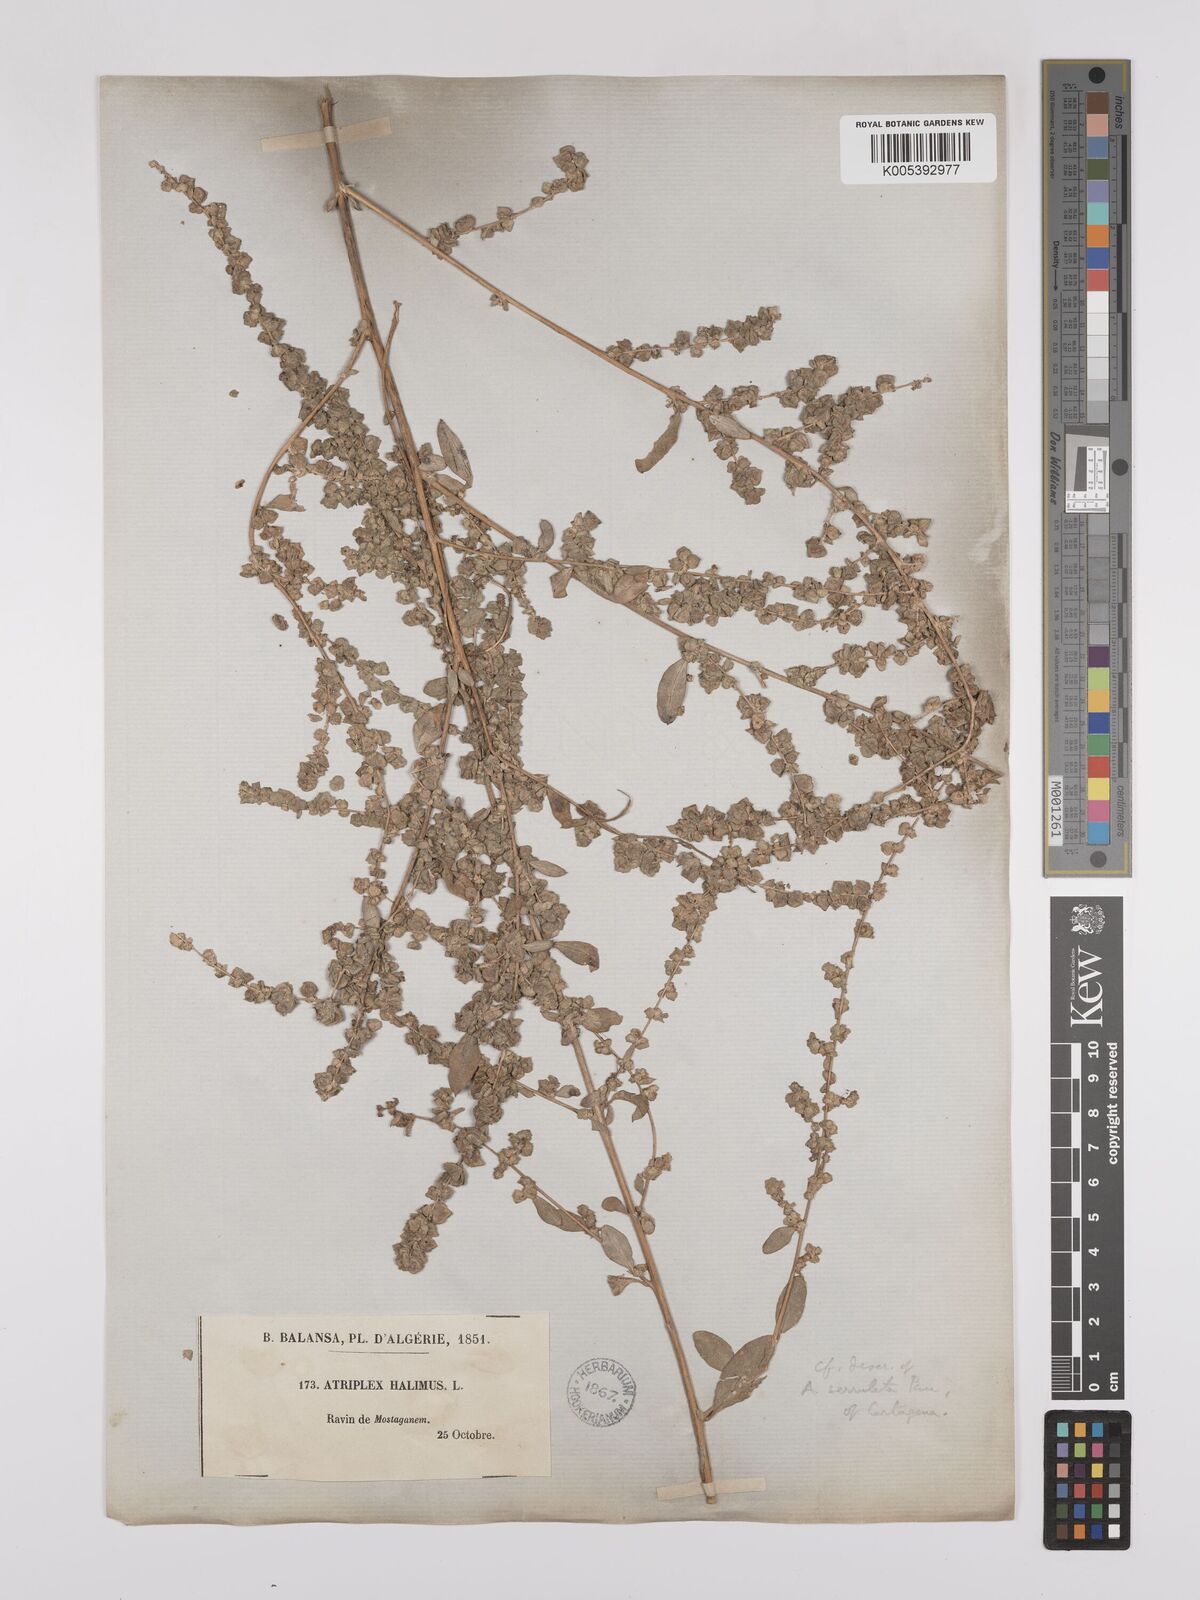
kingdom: Plantae
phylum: Tracheophyta
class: Magnoliopsida
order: Caryophyllales
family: Amaranthaceae
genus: Atriplex
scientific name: Atriplex
